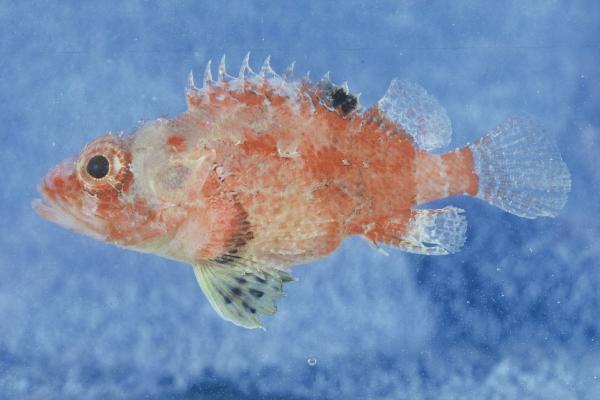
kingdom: Animalia
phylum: Chordata
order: Scorpaeniformes
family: Scorpaenidae
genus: Scorpaenodes
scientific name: Scorpaenodes varipinnis
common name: Blotchfin scorpionfish
